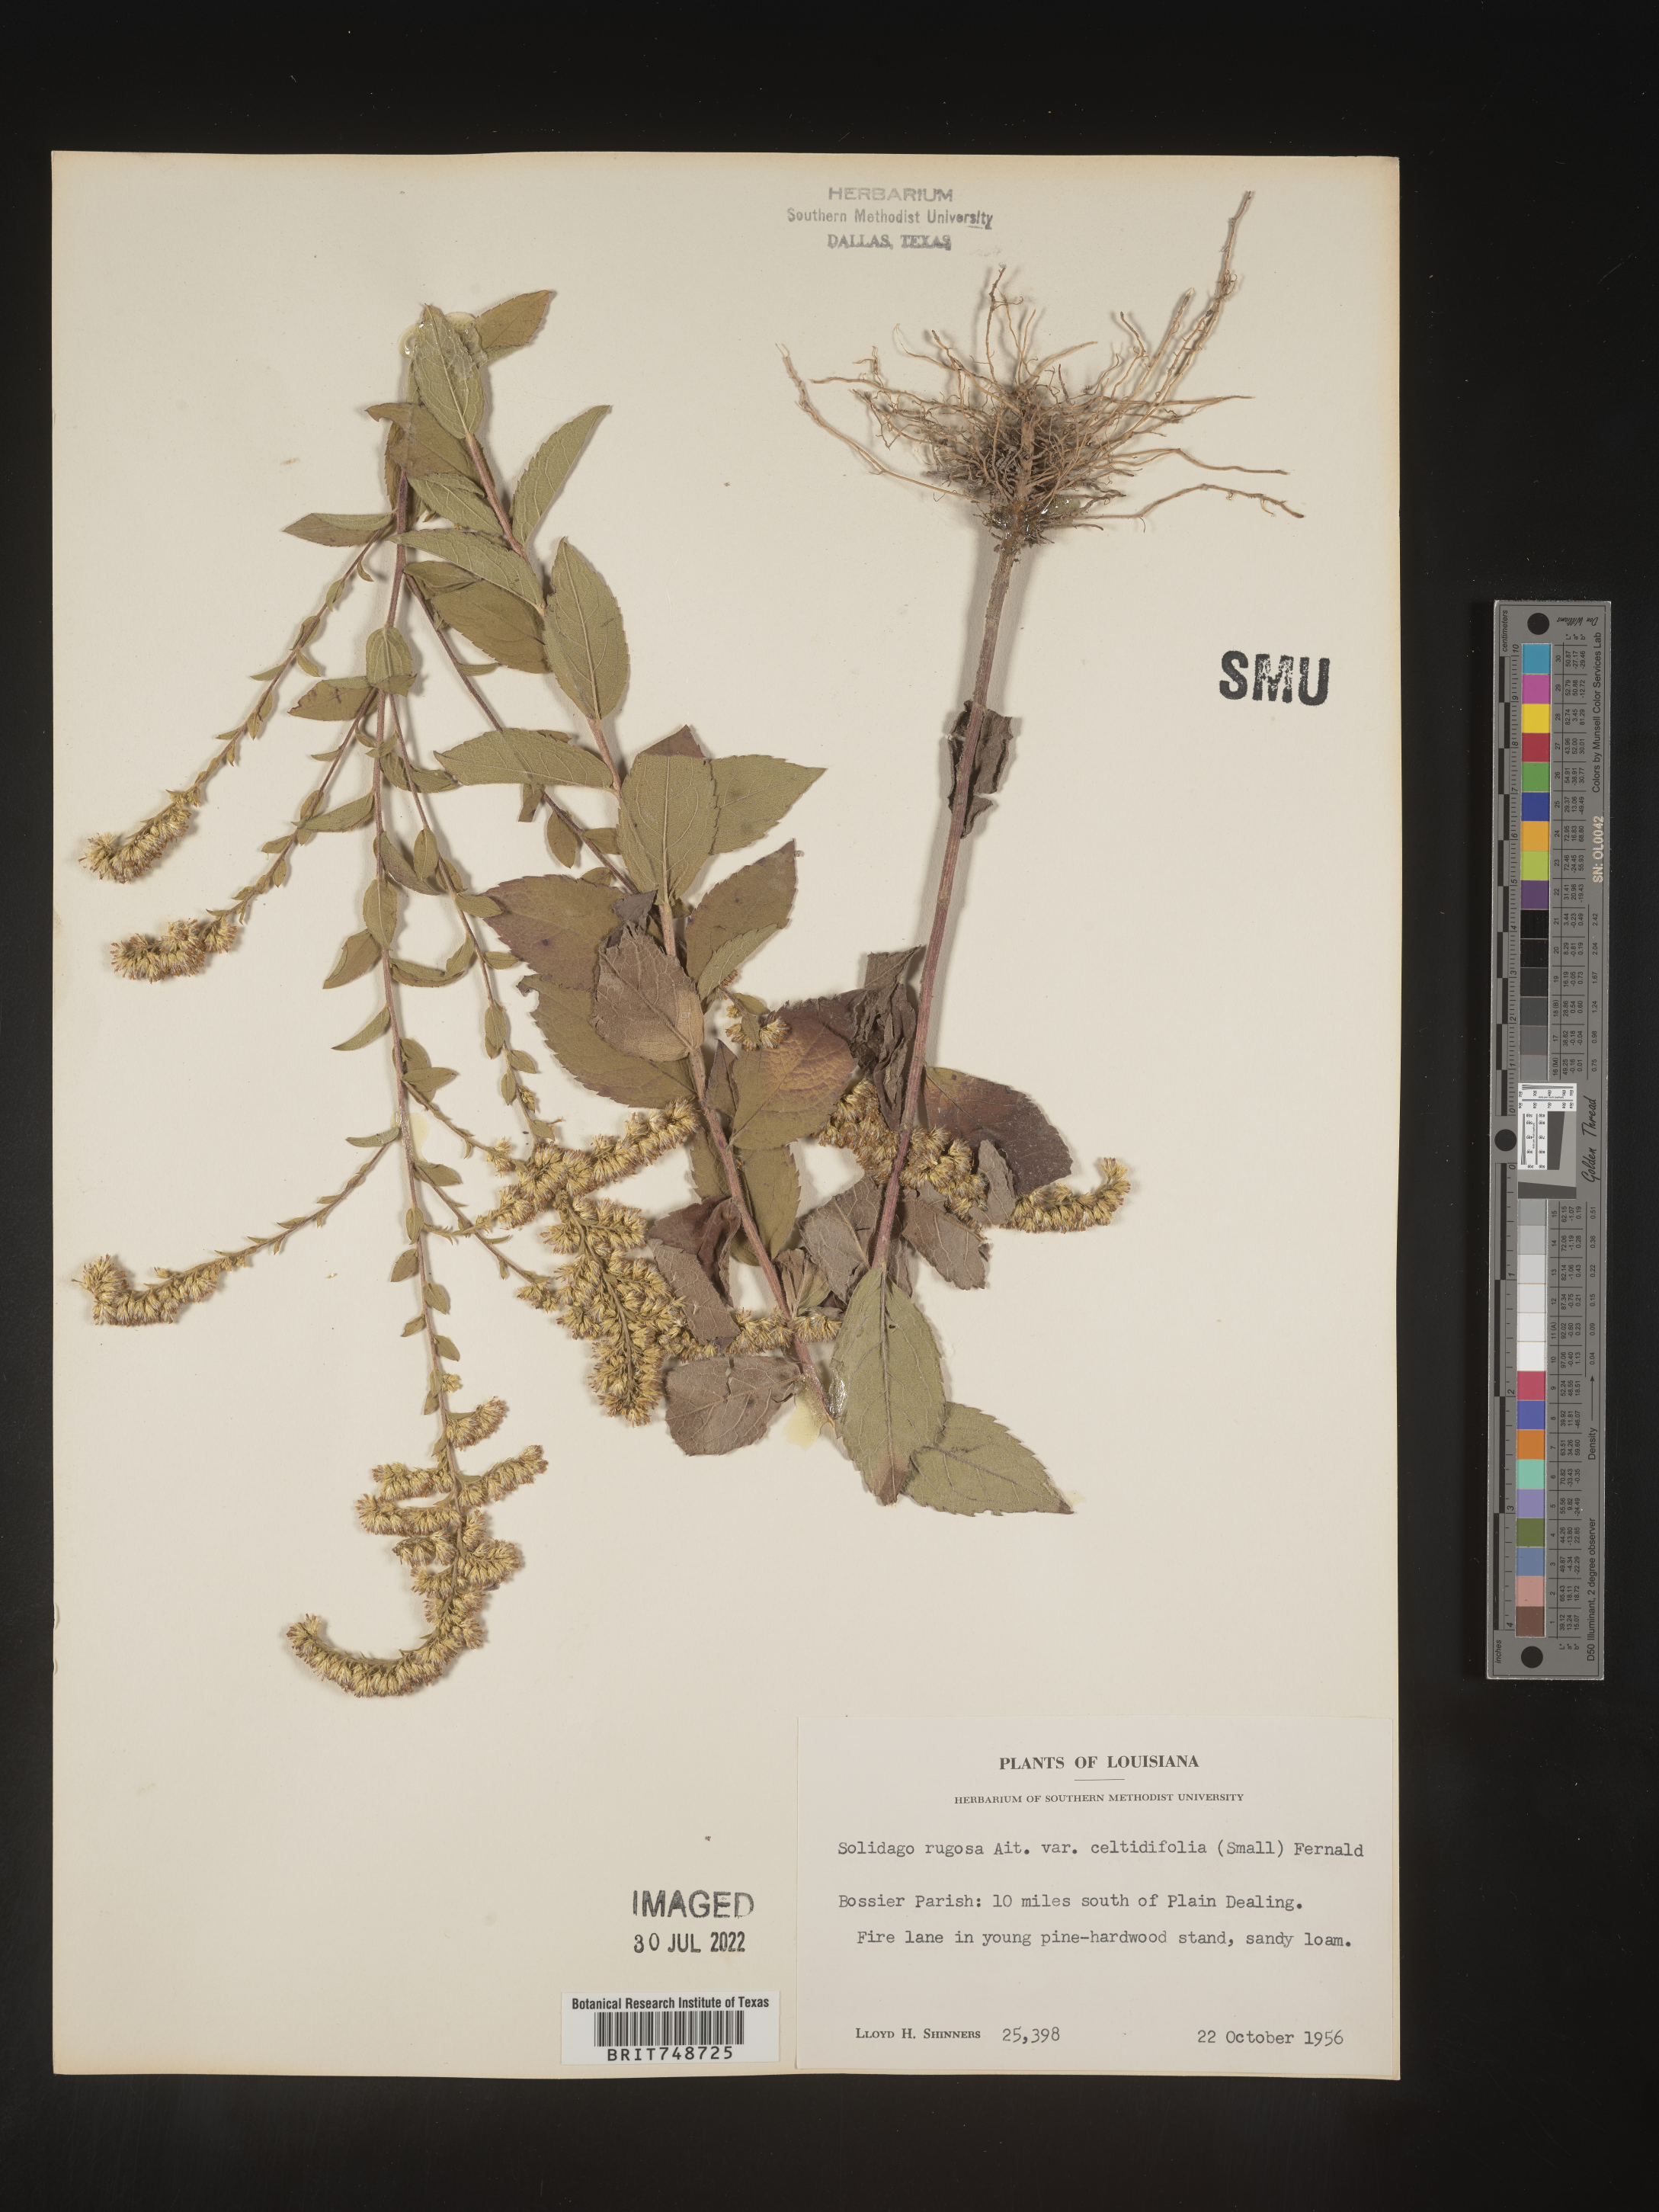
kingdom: Plantae
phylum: Tracheophyta
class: Magnoliopsida
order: Asterales
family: Asteraceae
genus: Solidago
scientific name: Solidago rugosa
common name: Rough-stemmed goldenrod
